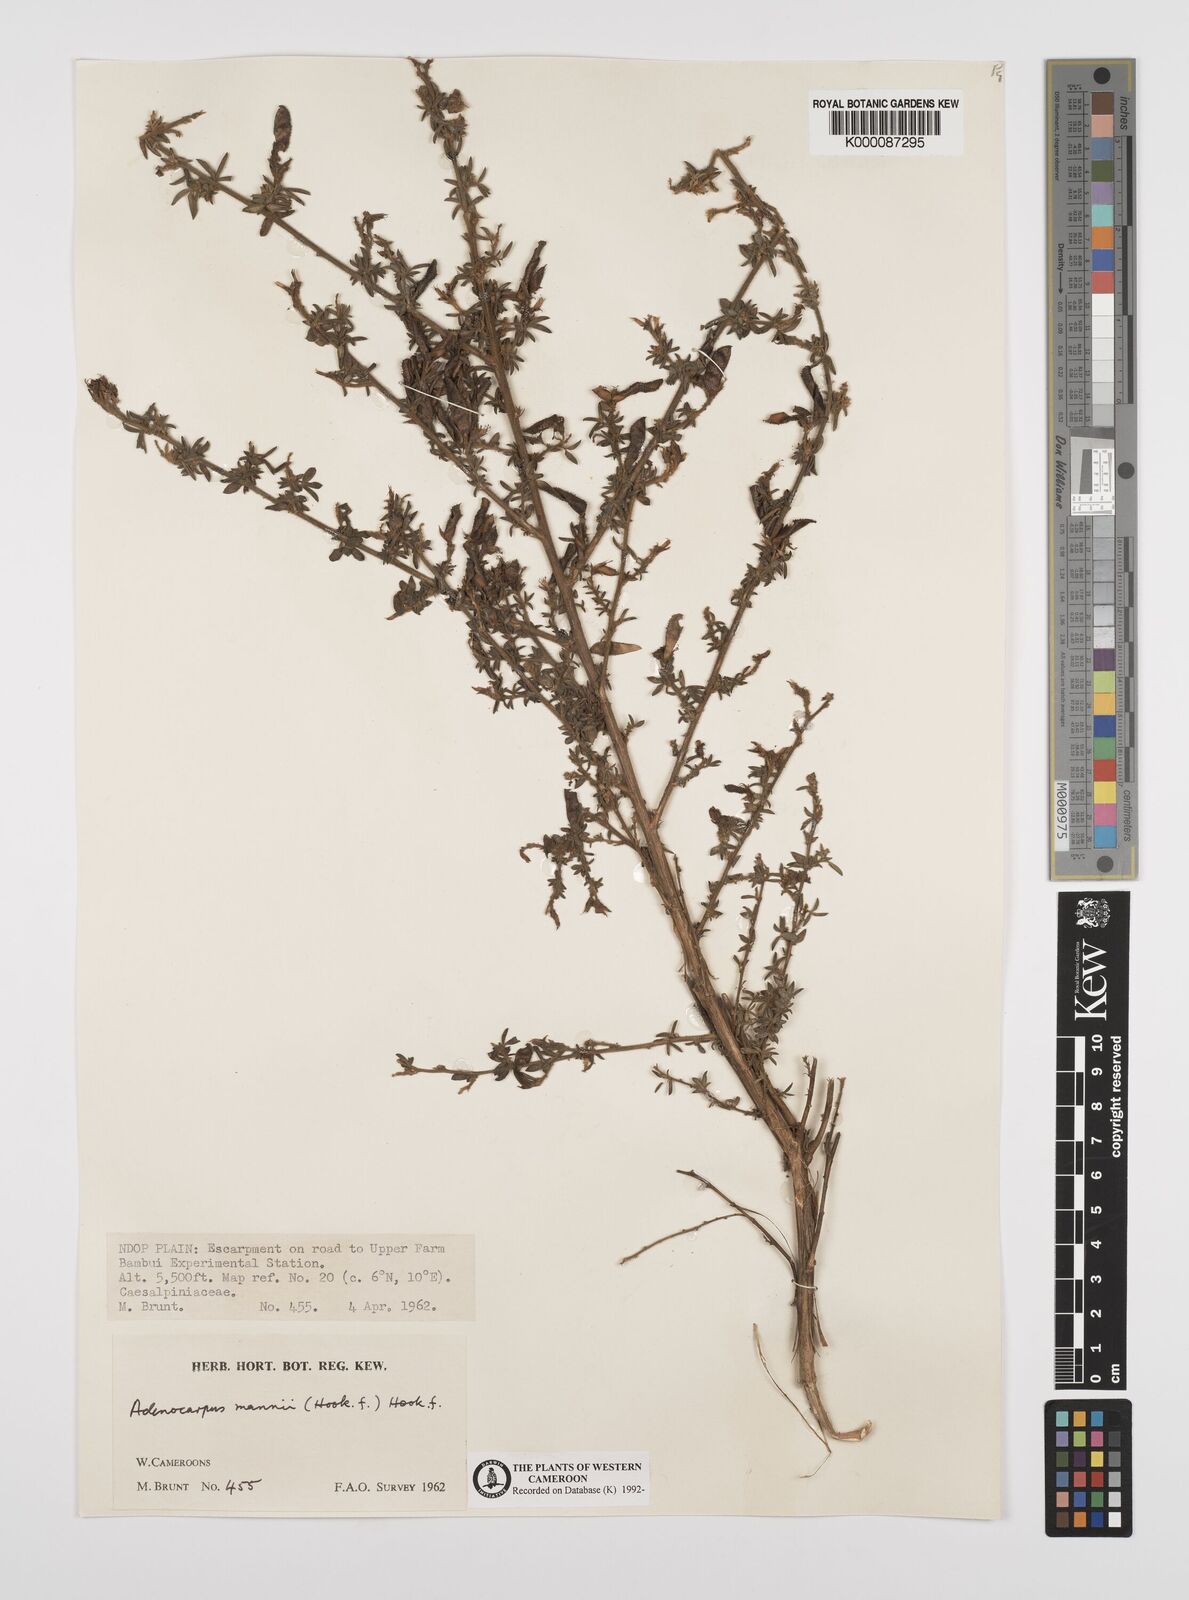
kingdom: Plantae
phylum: Tracheophyta
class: Magnoliopsida
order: Fabales
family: Fabaceae
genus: Adenocarpus
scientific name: Adenocarpus mannii
